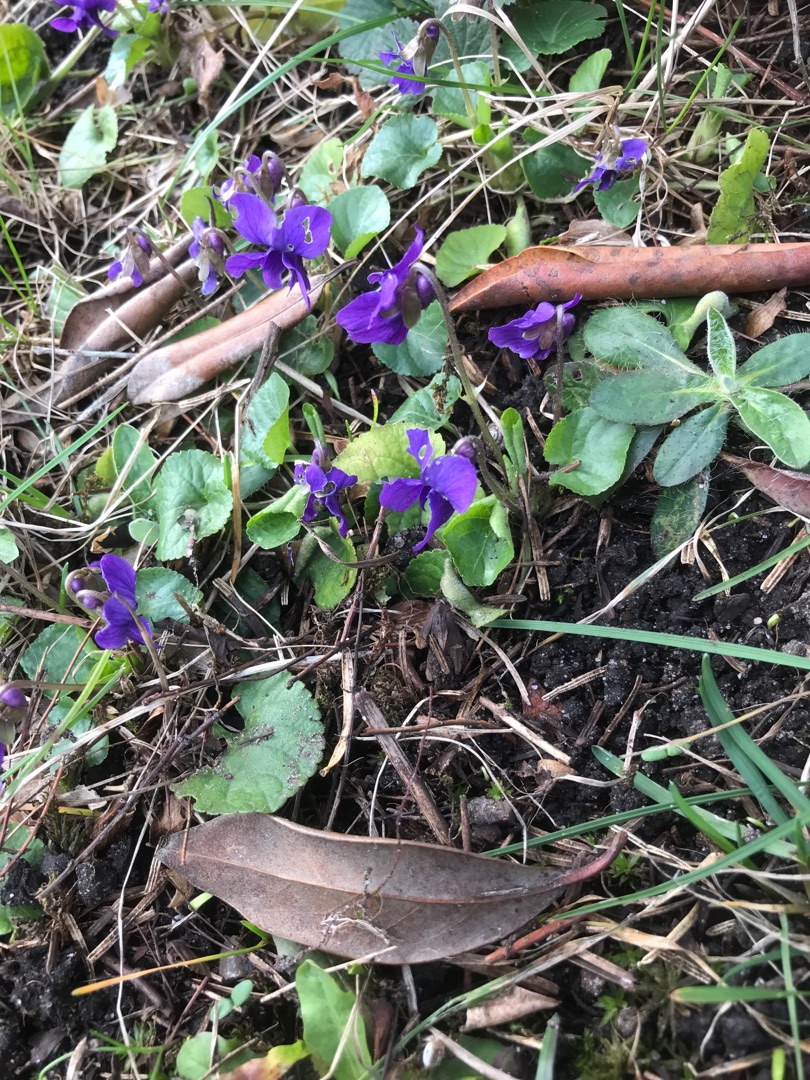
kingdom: Plantae
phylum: Tracheophyta
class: Magnoliopsida
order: Malpighiales
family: Violaceae
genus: Viola
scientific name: Viola odorata
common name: Marts-viol
